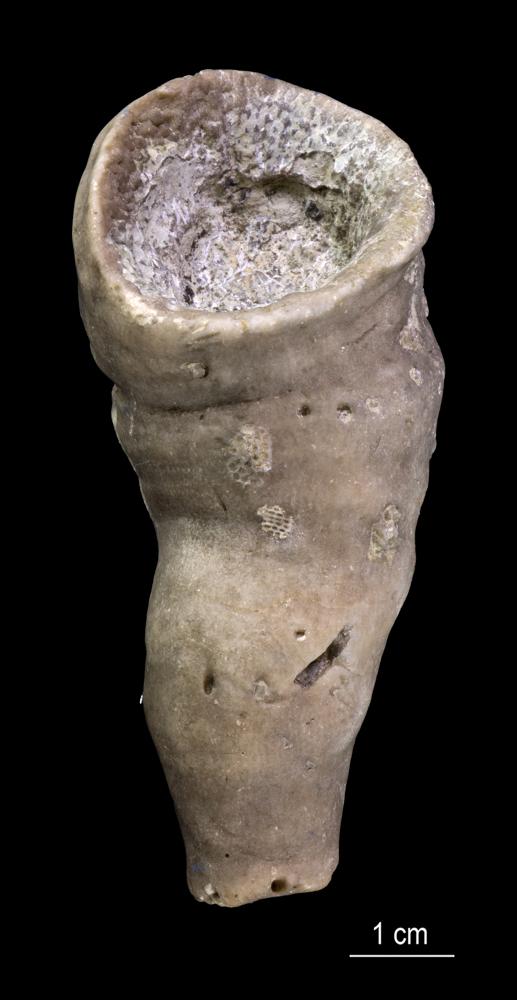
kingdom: Animalia
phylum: Cnidaria
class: Anthozoa
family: Cyathophyllidae
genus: Cyathophyllum
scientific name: Cyathophyllum
